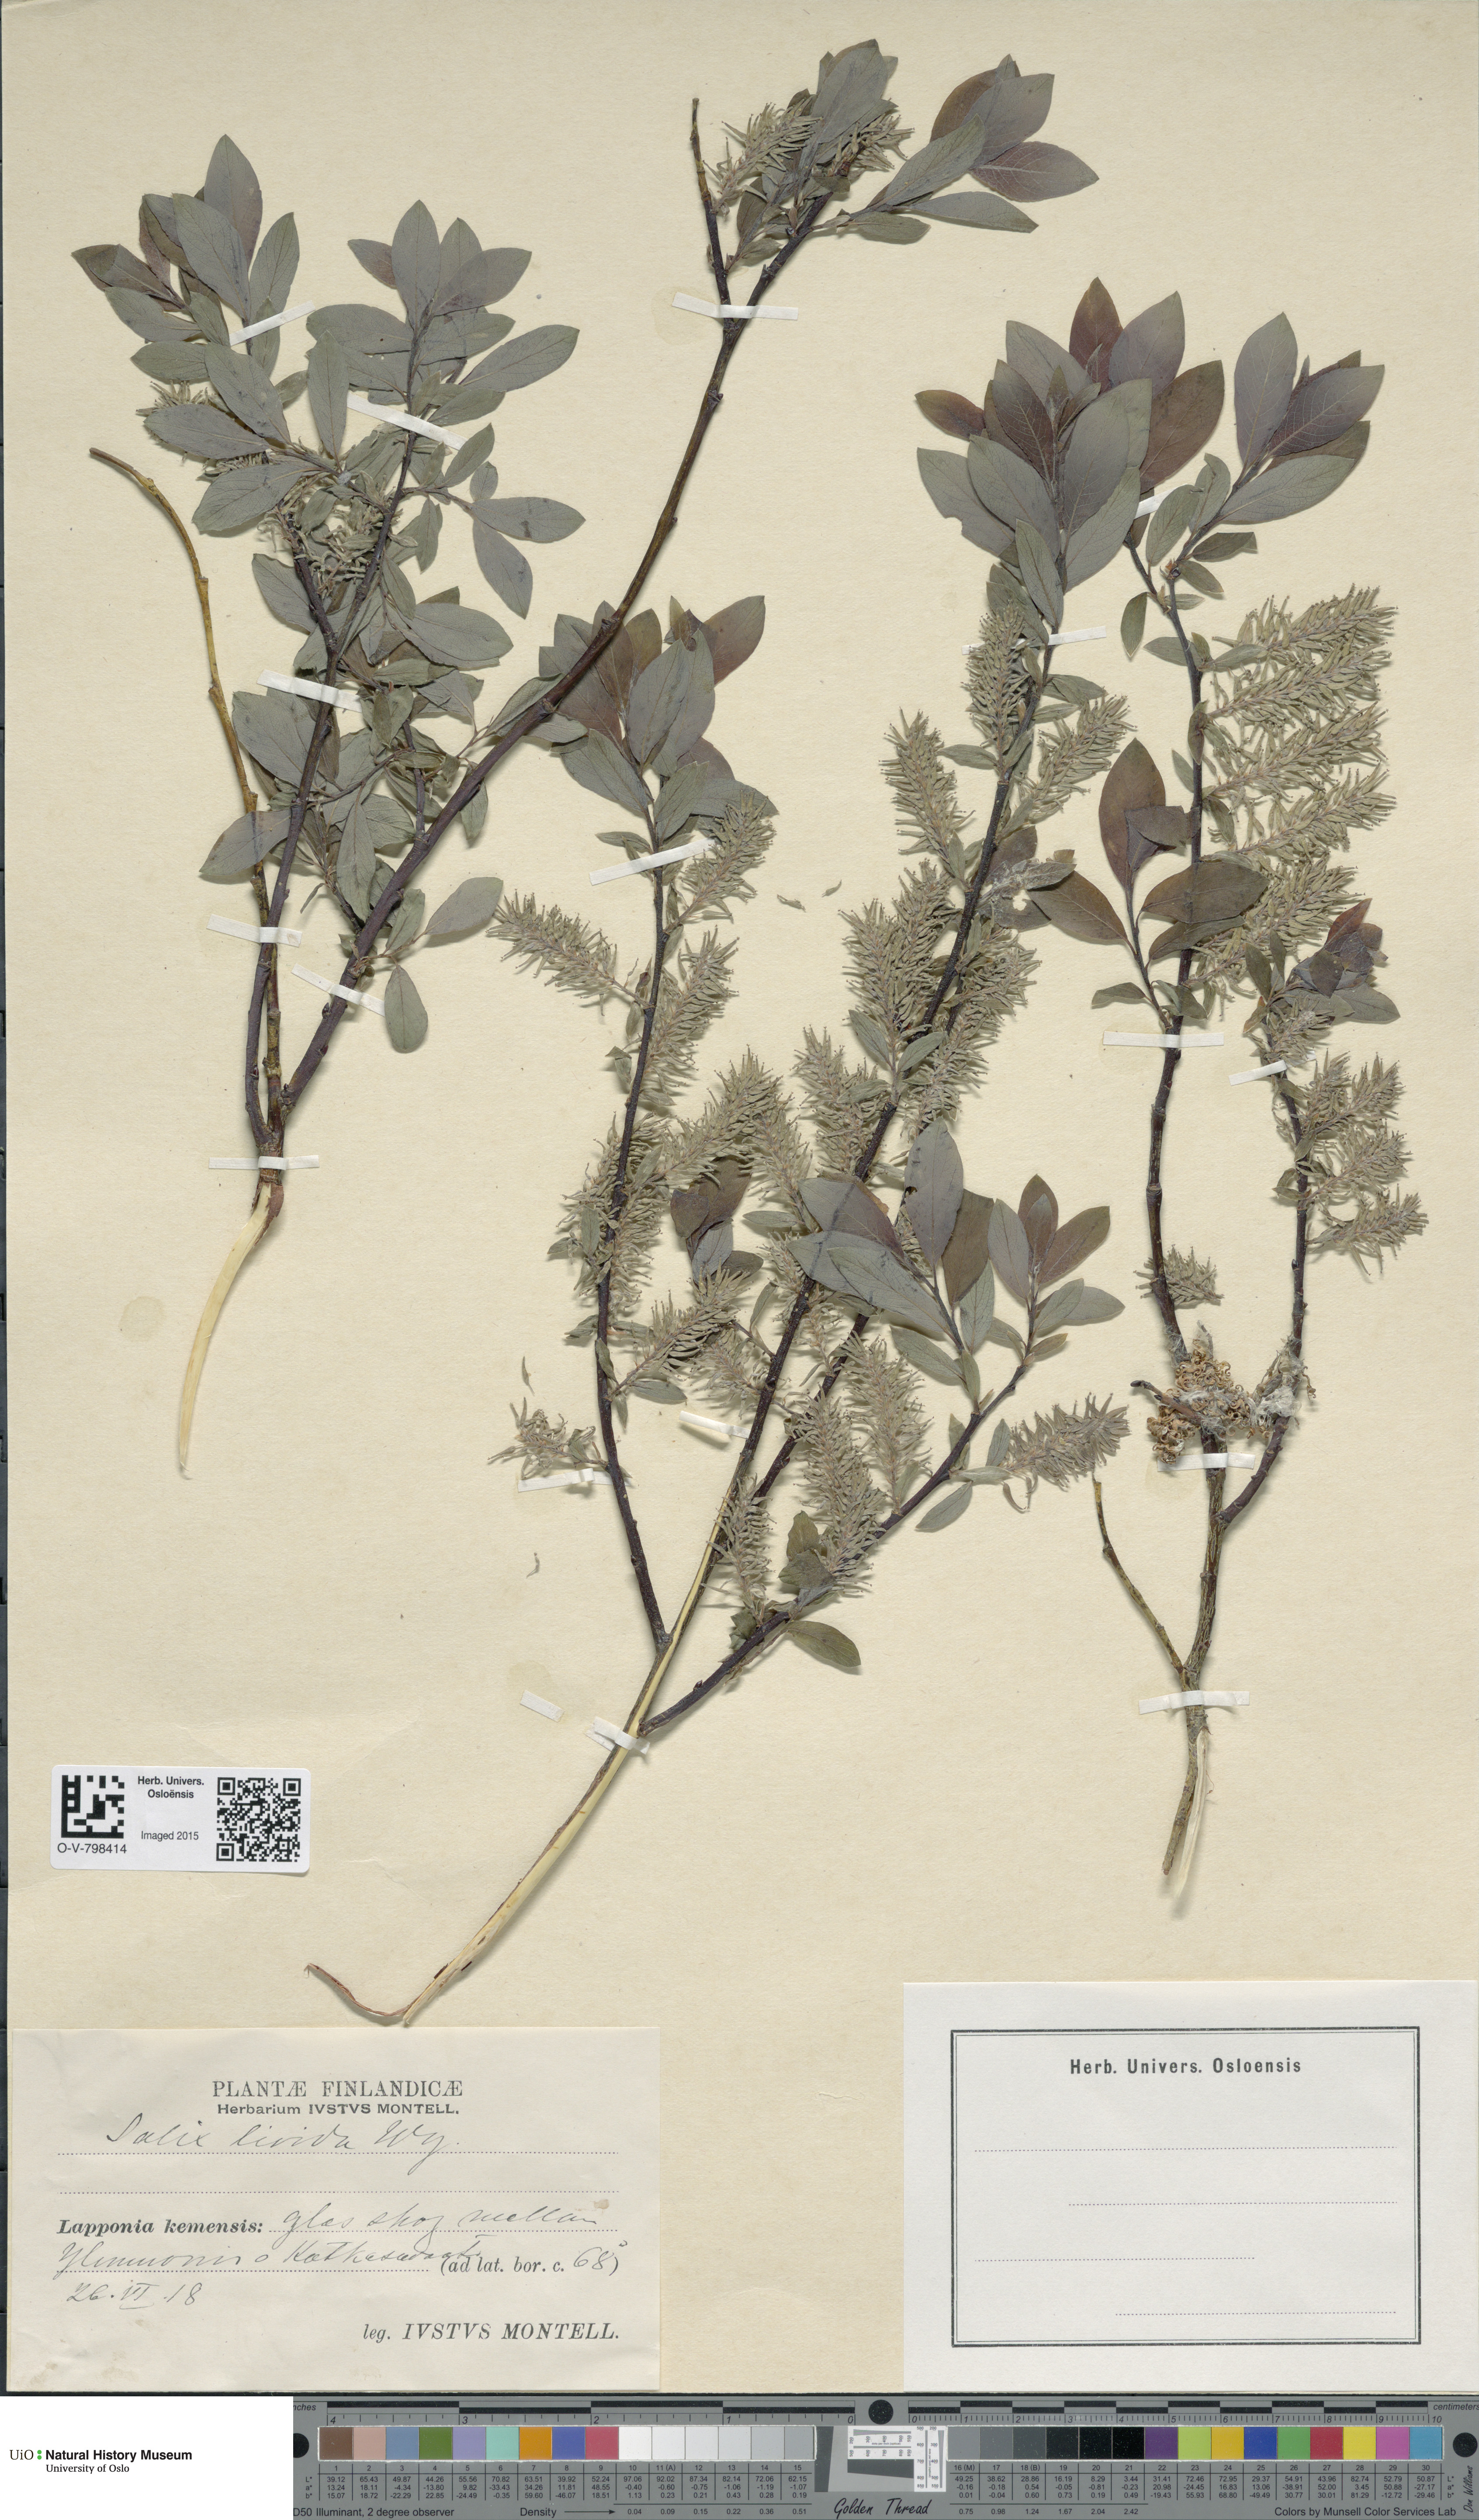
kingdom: Plantae
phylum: Tracheophyta
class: Magnoliopsida
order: Malpighiales
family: Salicaceae
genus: Salix
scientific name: Salix starkeana
